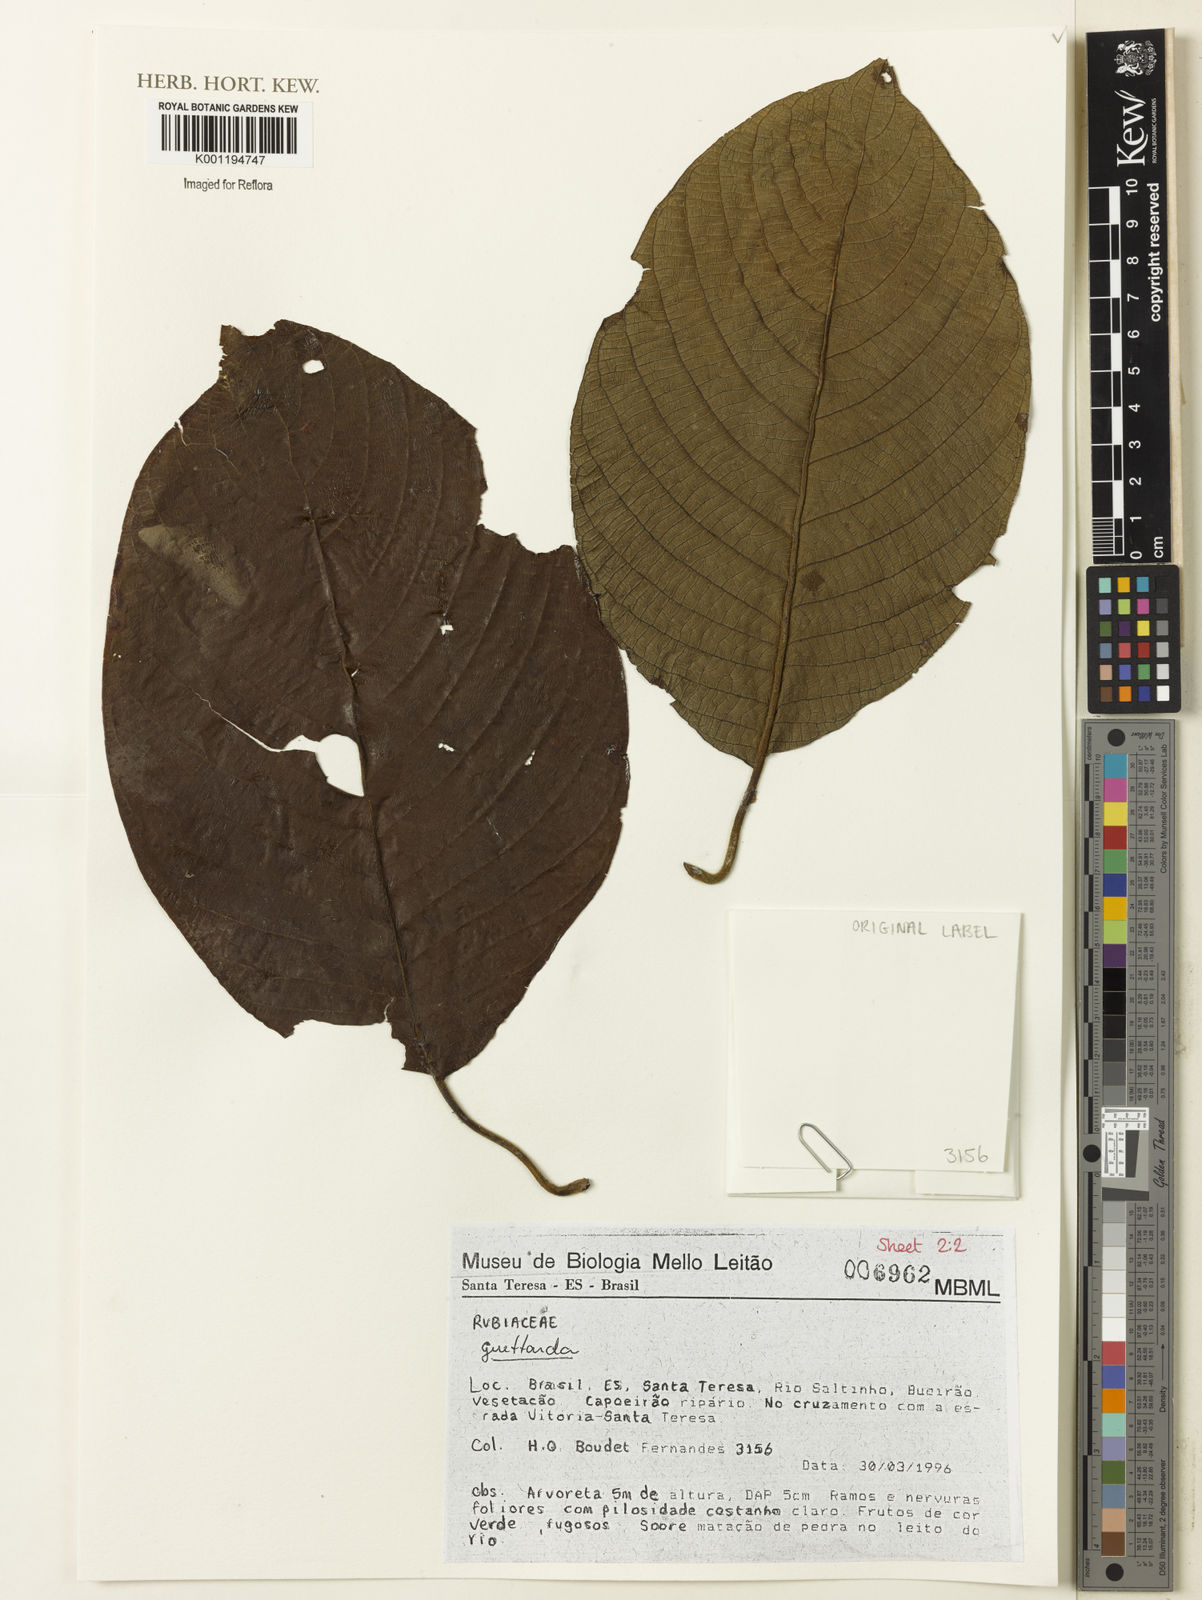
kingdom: Plantae
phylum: Tracheophyta
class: Magnoliopsida
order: Gentianales
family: Rubiaceae
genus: Guettarda
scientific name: Guettarda
